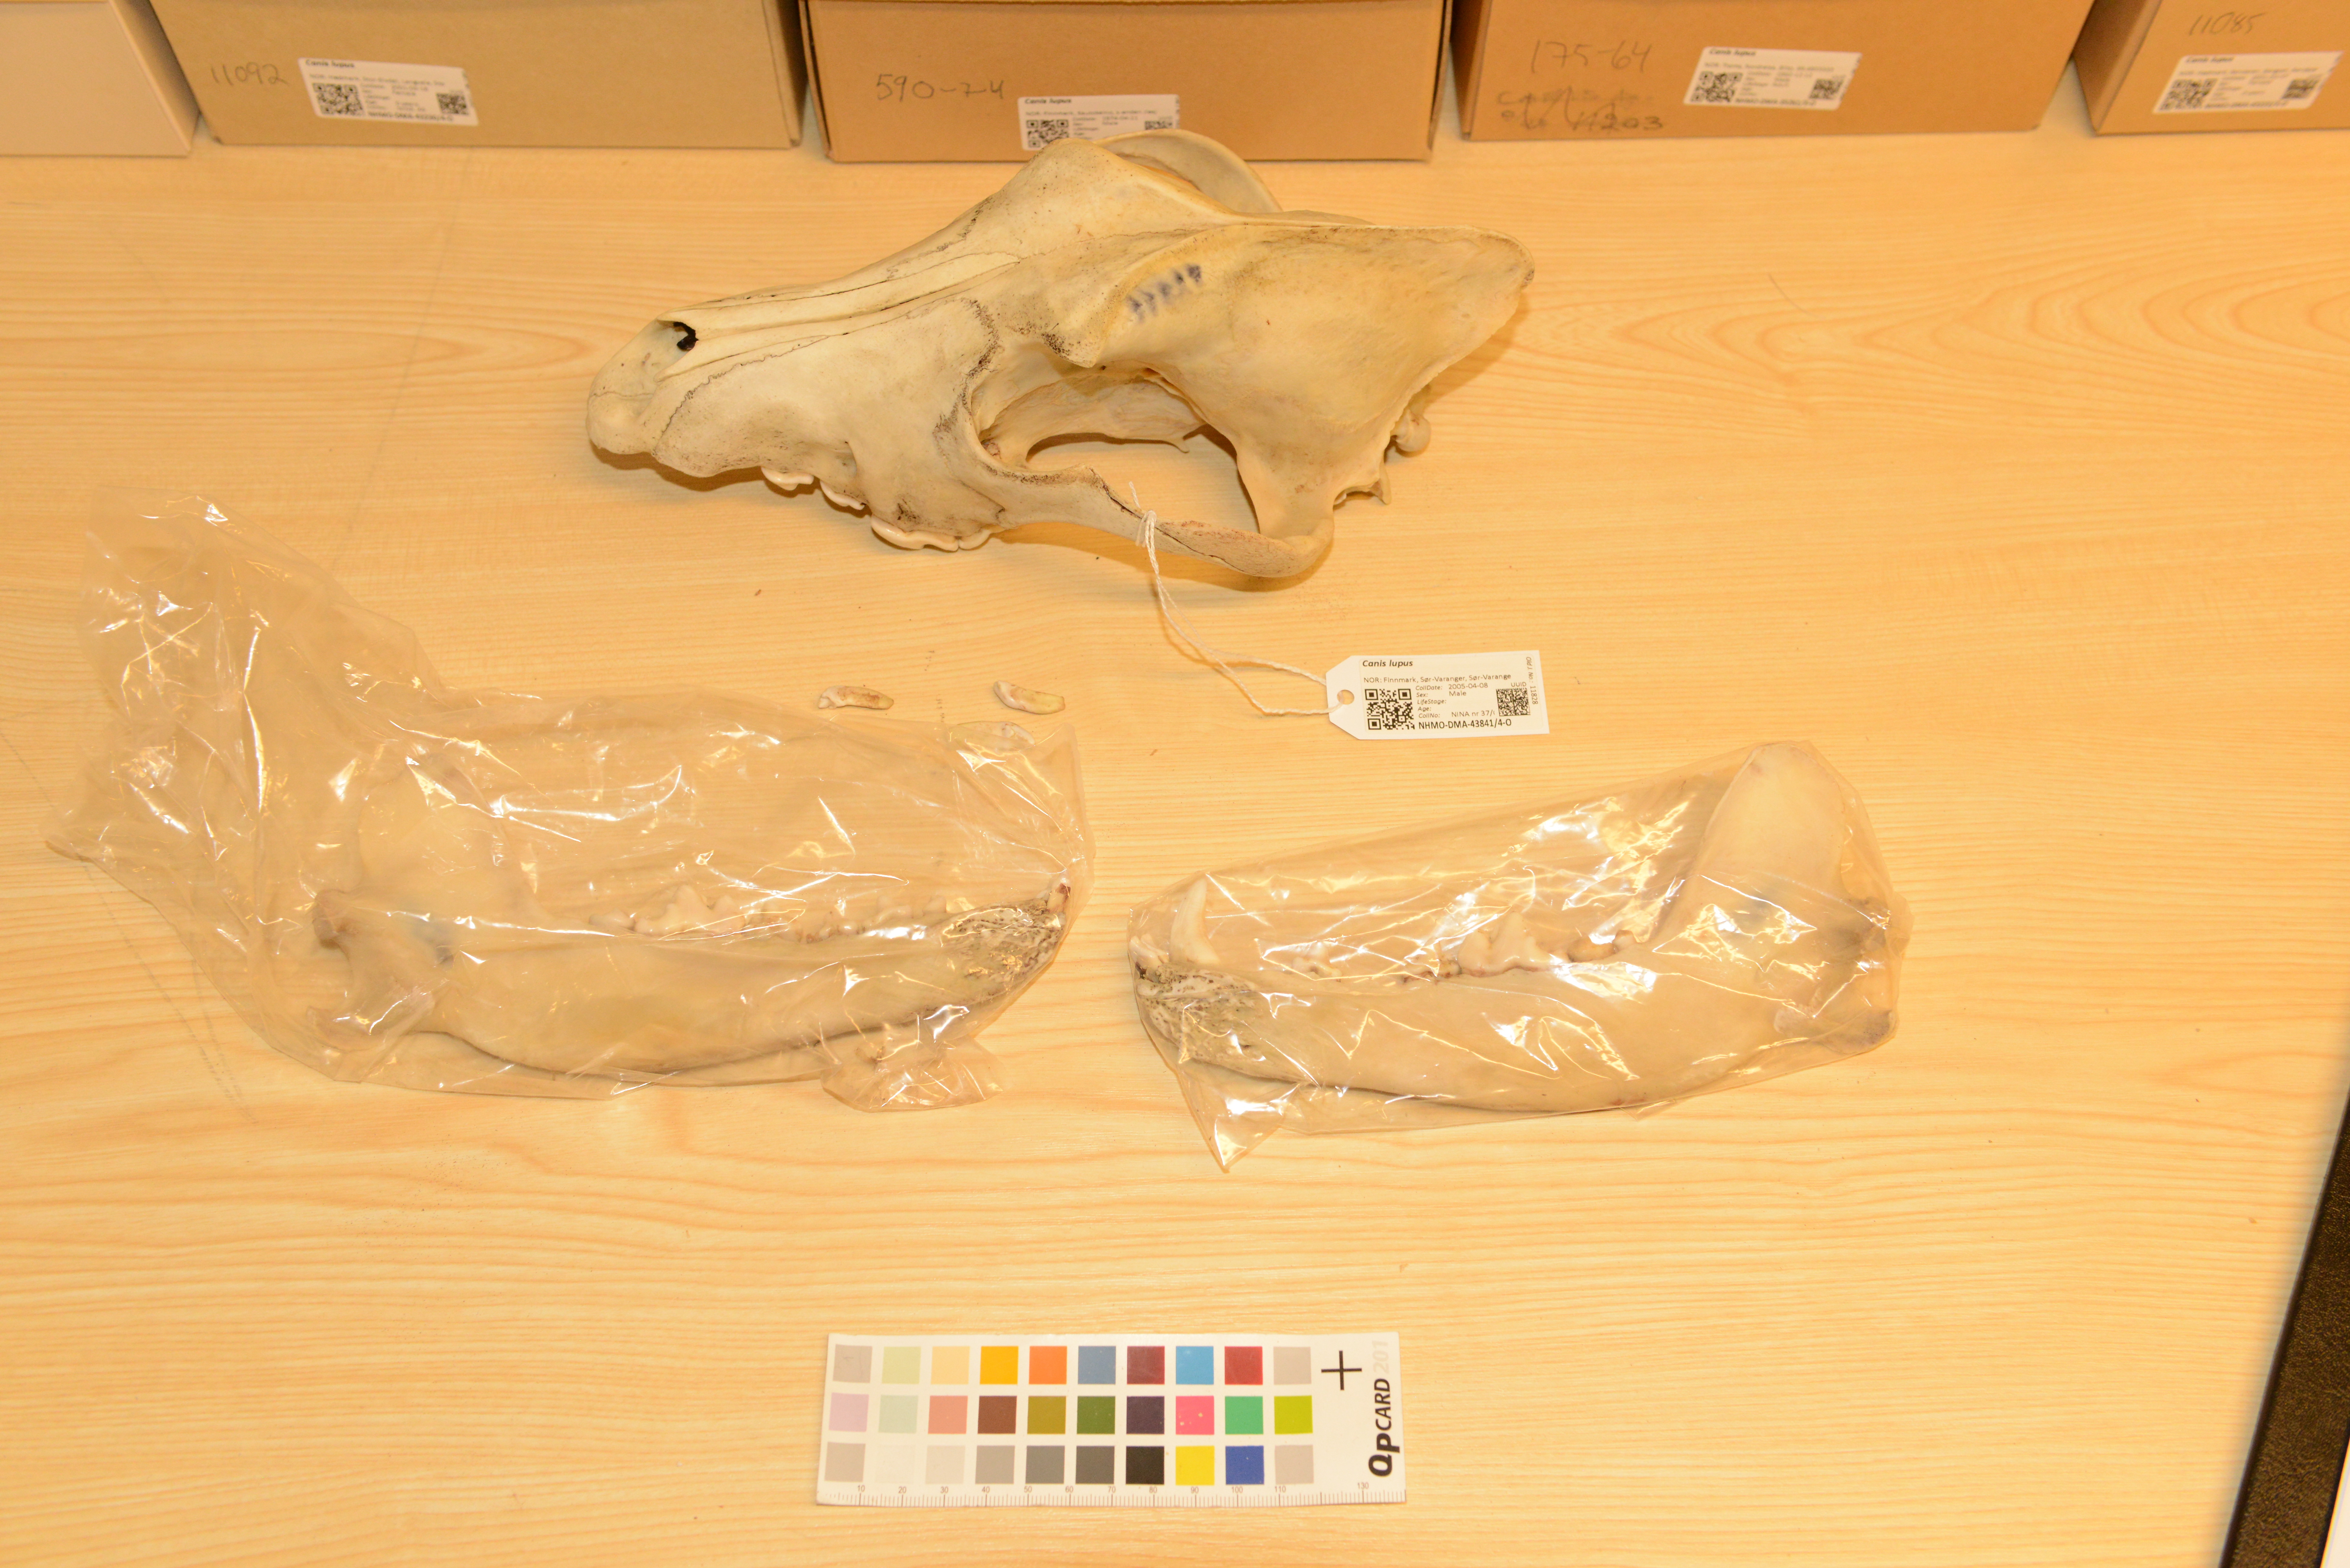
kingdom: Animalia
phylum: Chordata
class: Mammalia
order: Carnivora
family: Canidae
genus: Canis
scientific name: Canis lupus
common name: Gray wolf
